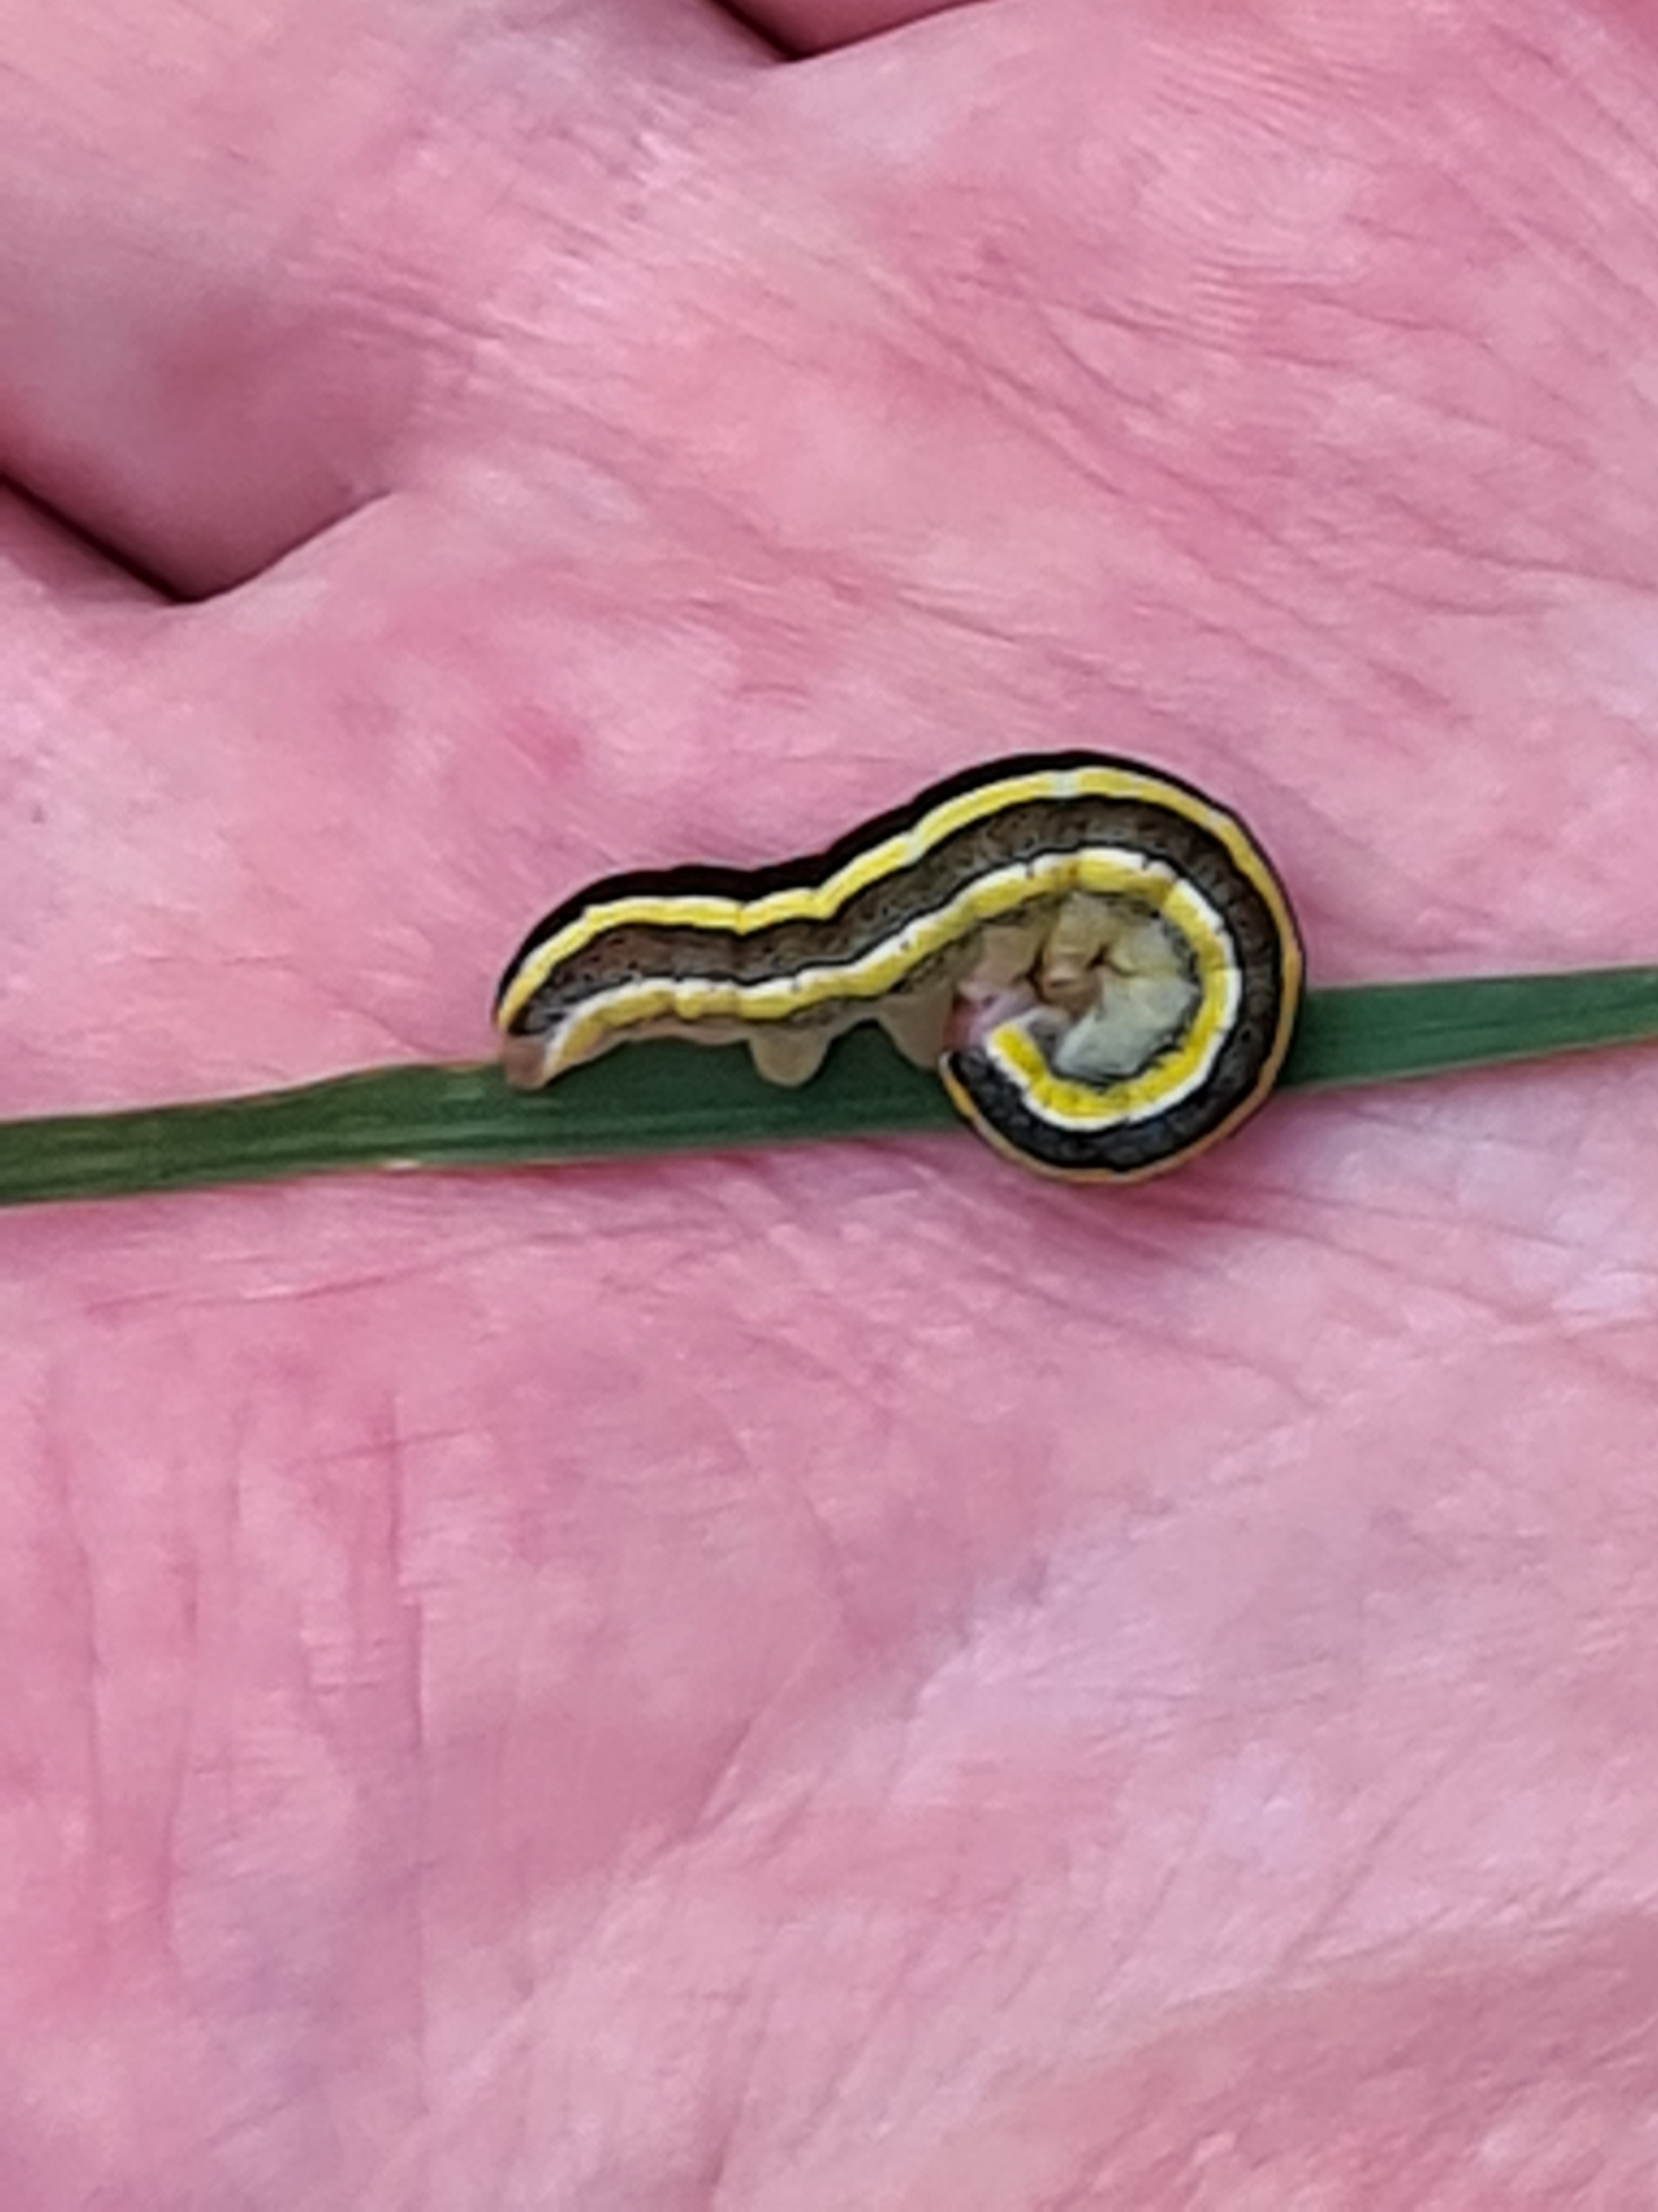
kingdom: Animalia
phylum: Arthropoda
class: Insecta
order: Lepidoptera
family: Noctuidae
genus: Ceramica
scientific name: Ceramica pisi
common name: Ærteugle
